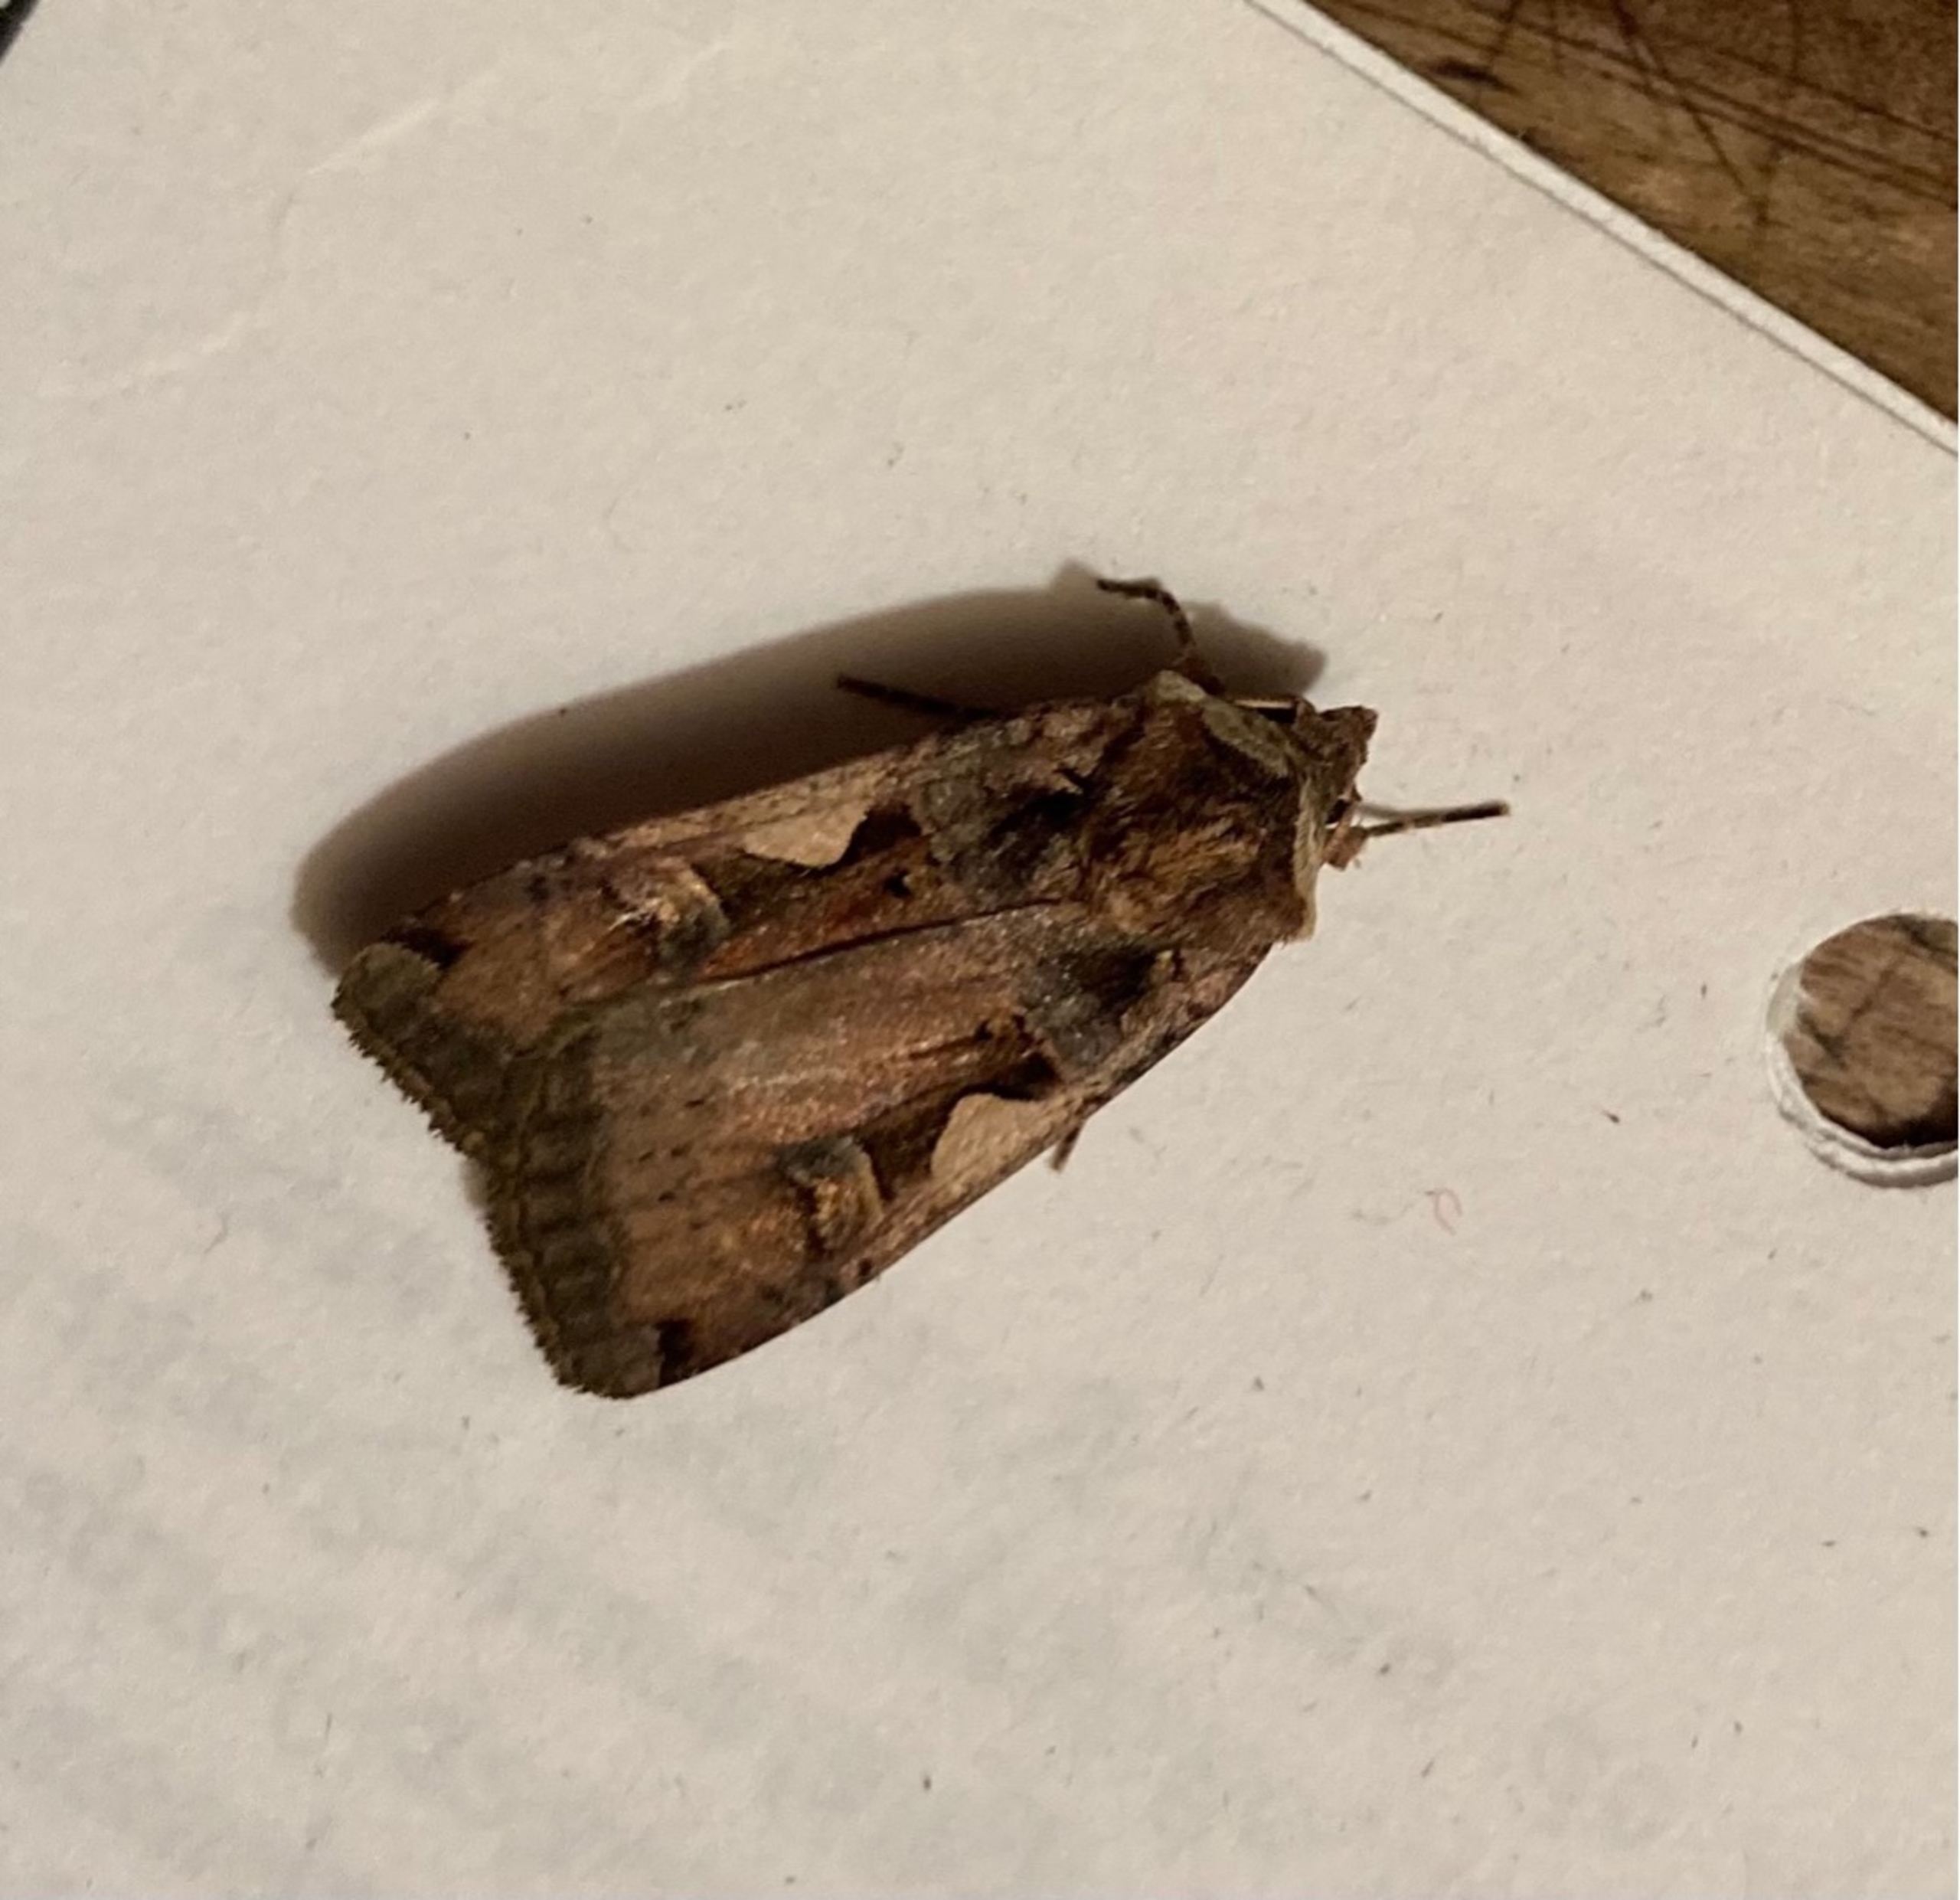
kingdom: Animalia
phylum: Arthropoda
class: Insecta
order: Lepidoptera
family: Noctuidae
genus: Xestia
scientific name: Xestia c-nigrum
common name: Det sorte c
